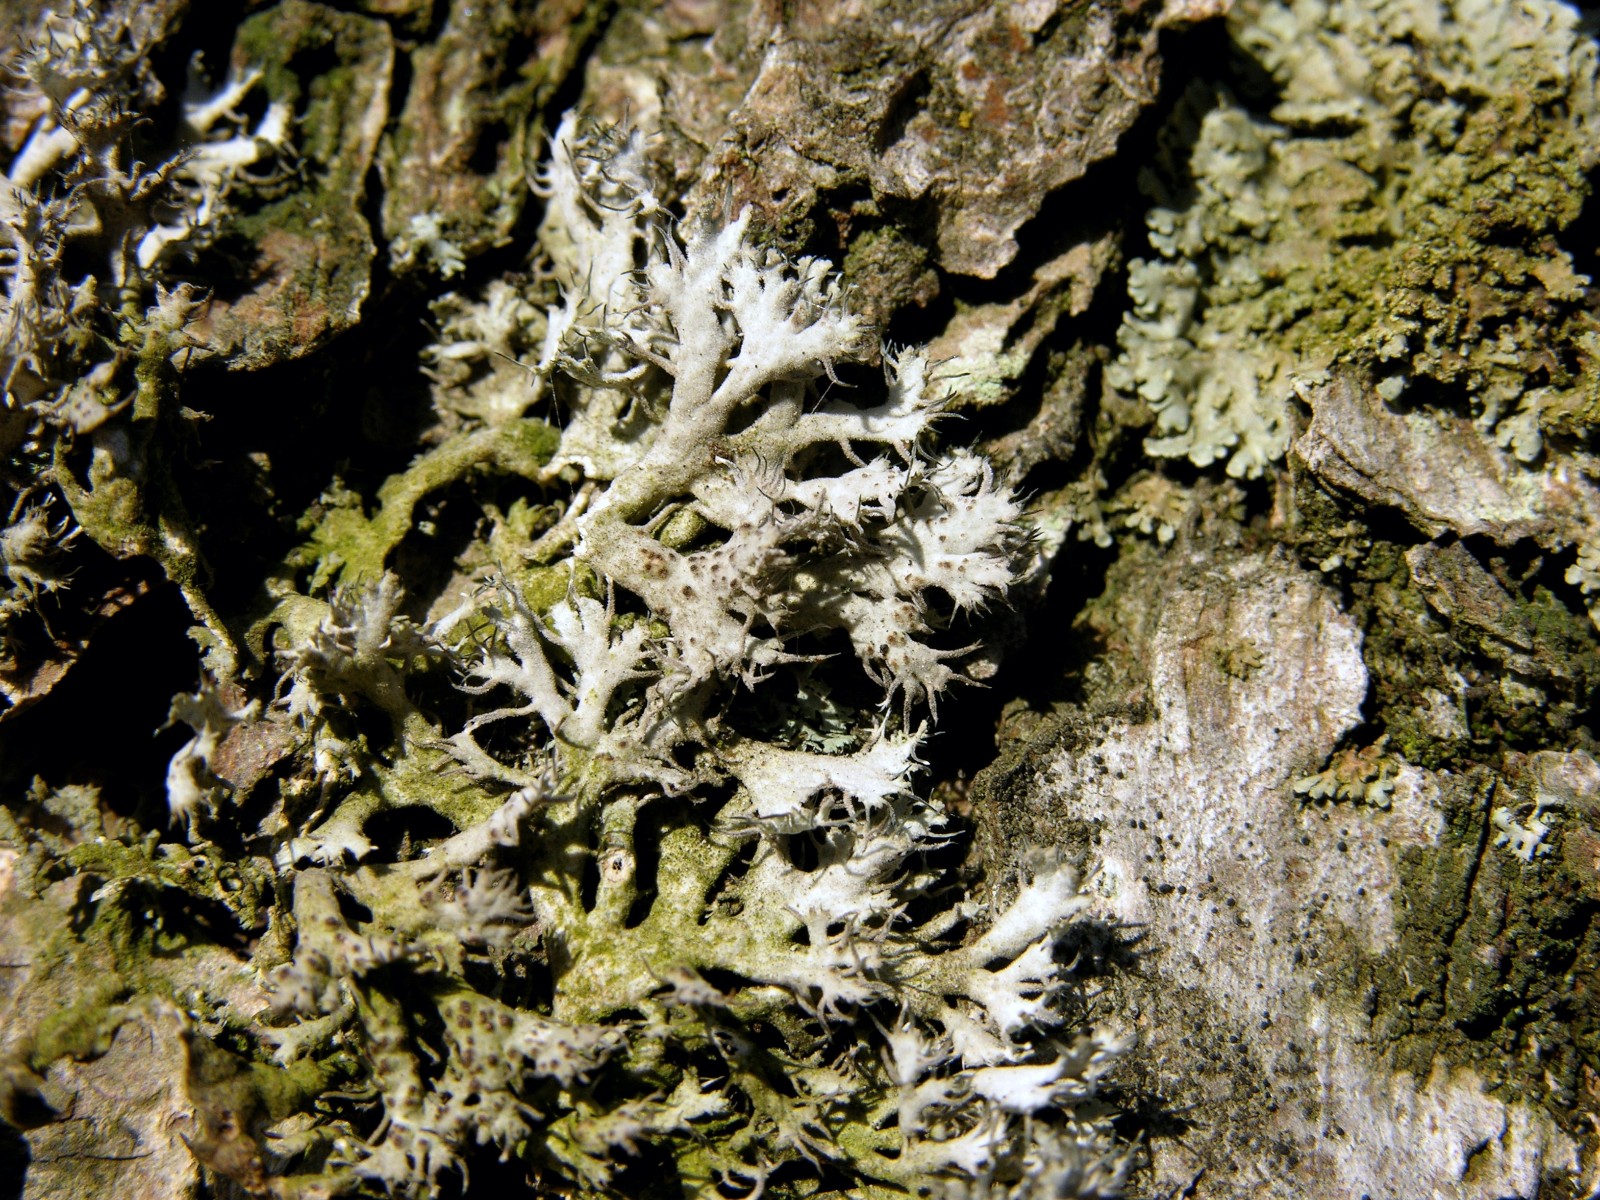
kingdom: Fungi
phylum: Ascomycota
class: Lecanoromycetes
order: Caliciales
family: Physciaceae
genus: Anaptychia
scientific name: Anaptychia ciliaris
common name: allé-frynselav
